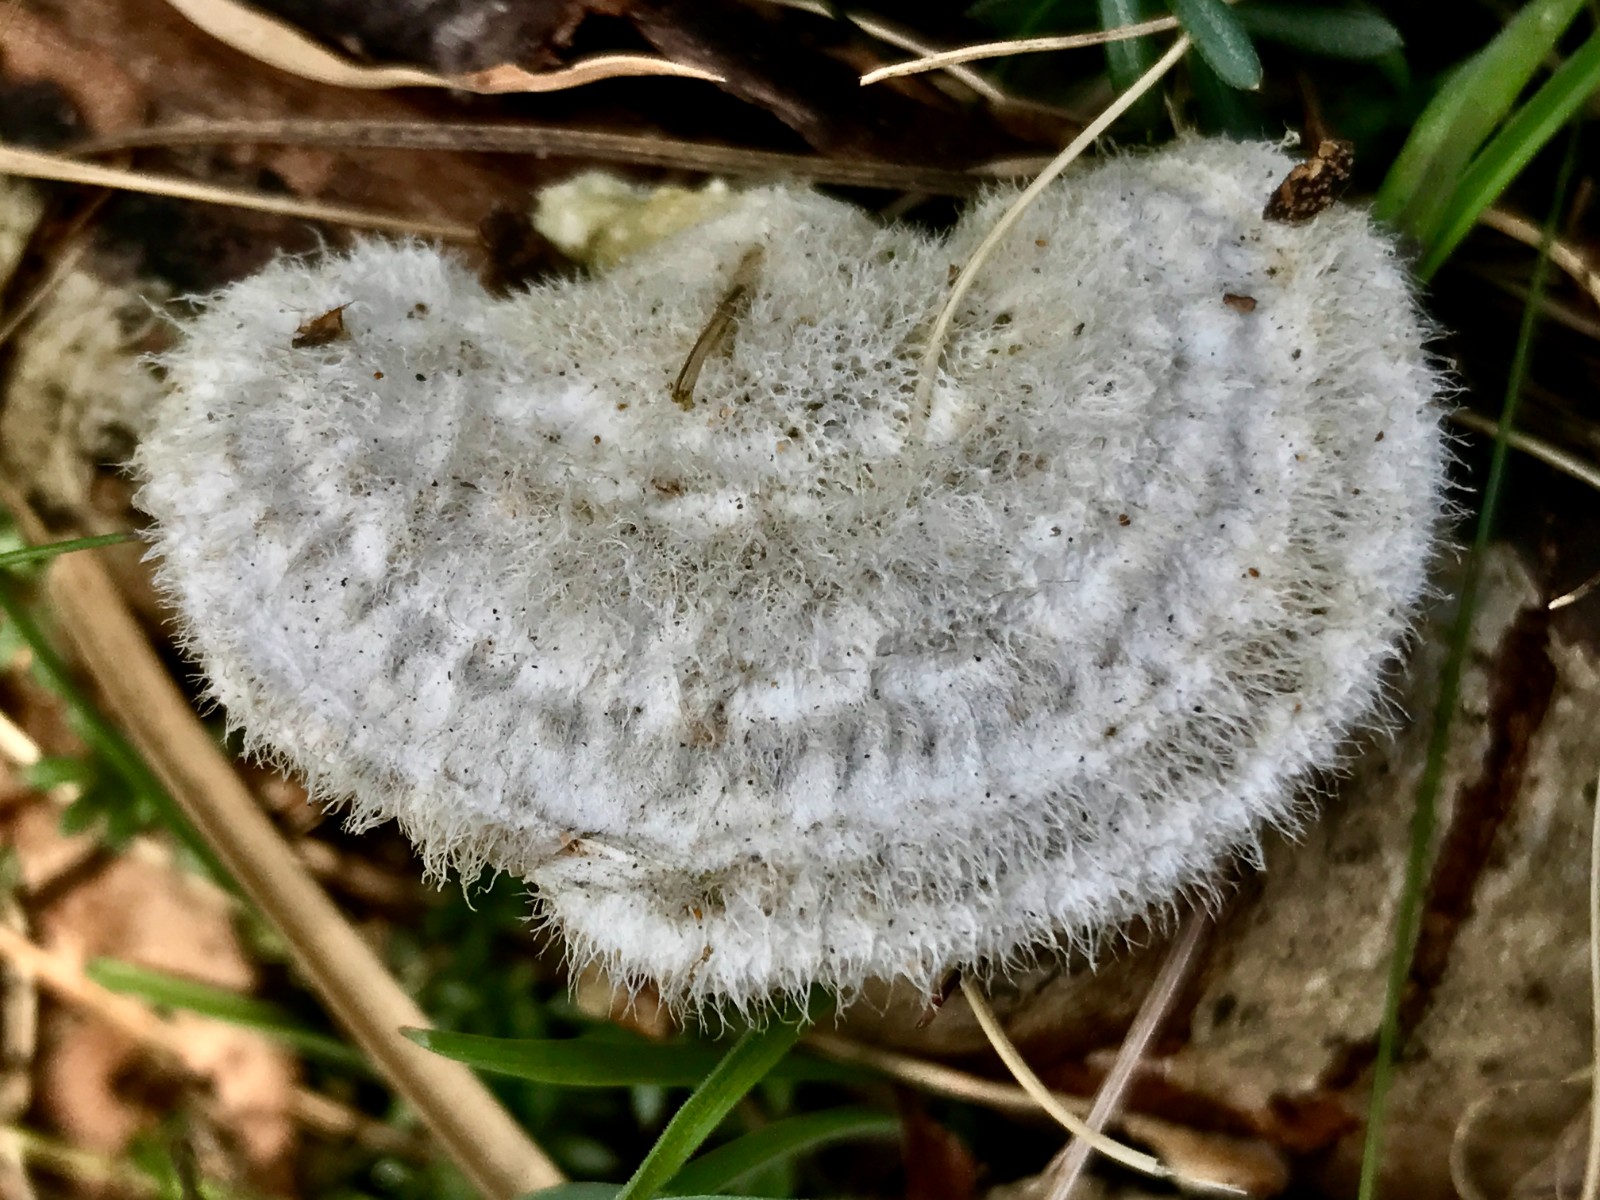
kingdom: Fungi
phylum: Basidiomycota
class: Agaricomycetes
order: Polyporales
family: Polyporaceae
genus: Trametes
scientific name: Trametes hirsuta
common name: håret læderporesvamp
